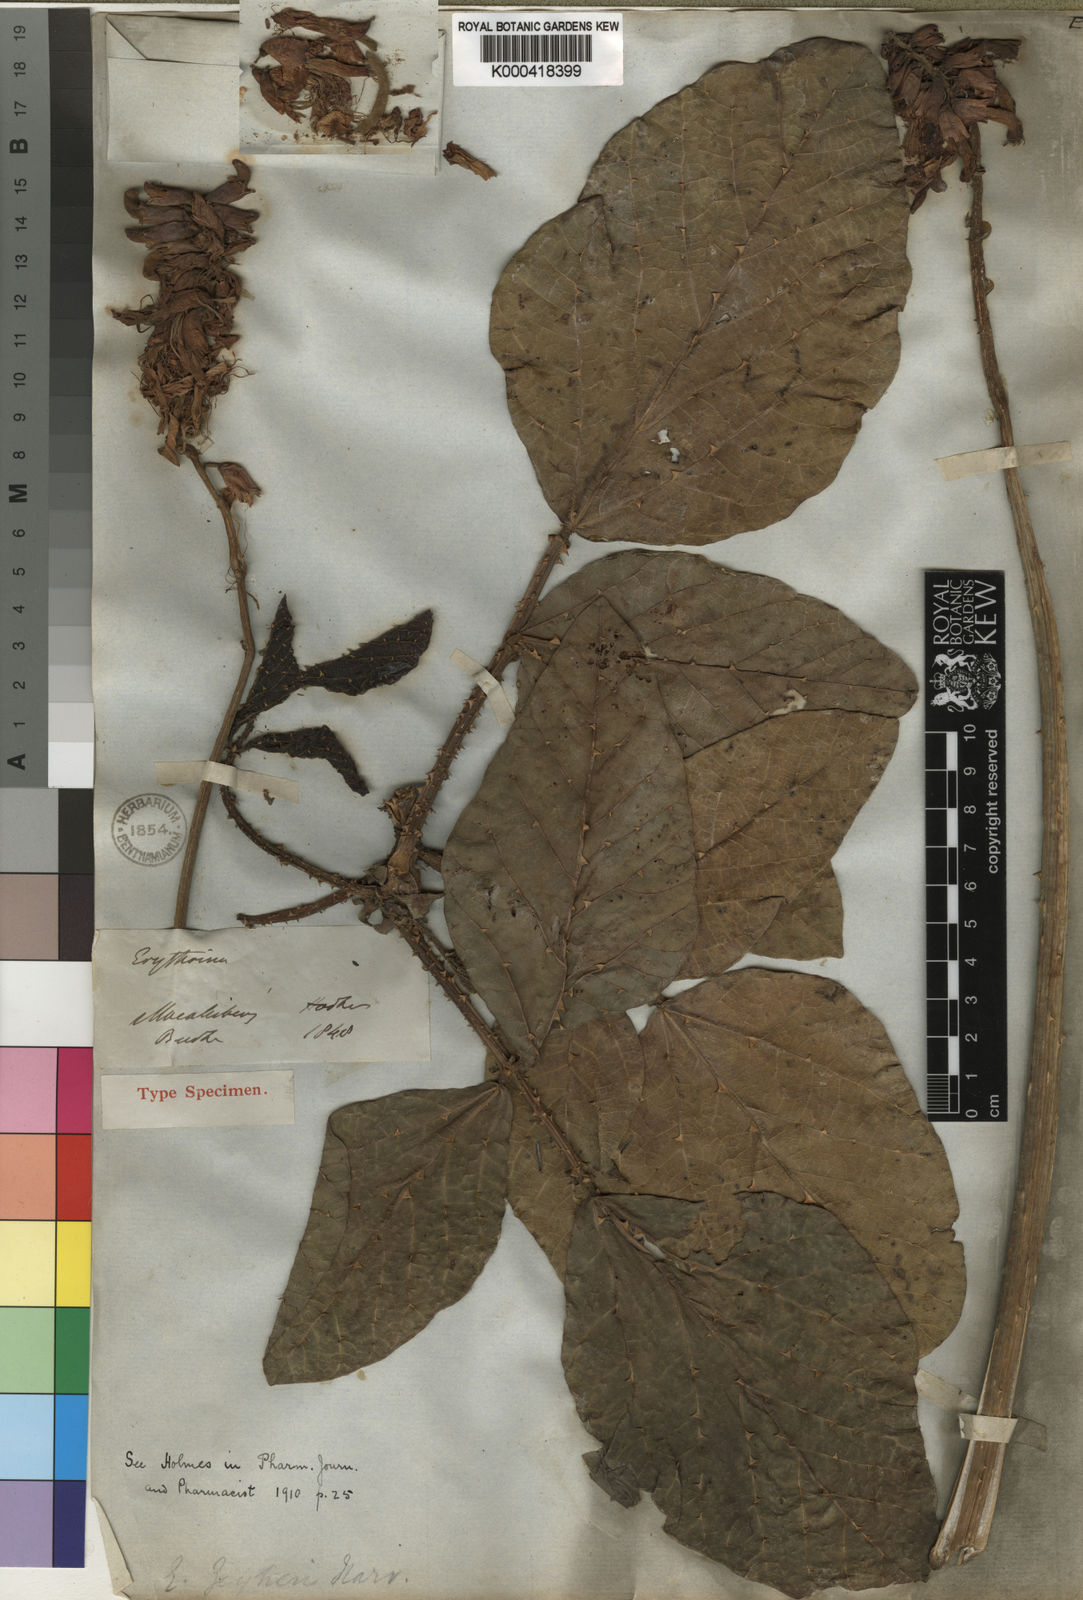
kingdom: Plantae
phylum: Tracheophyta
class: Magnoliopsida
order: Fabales
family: Fabaceae
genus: Erythrina
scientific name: Erythrina zeyheri
